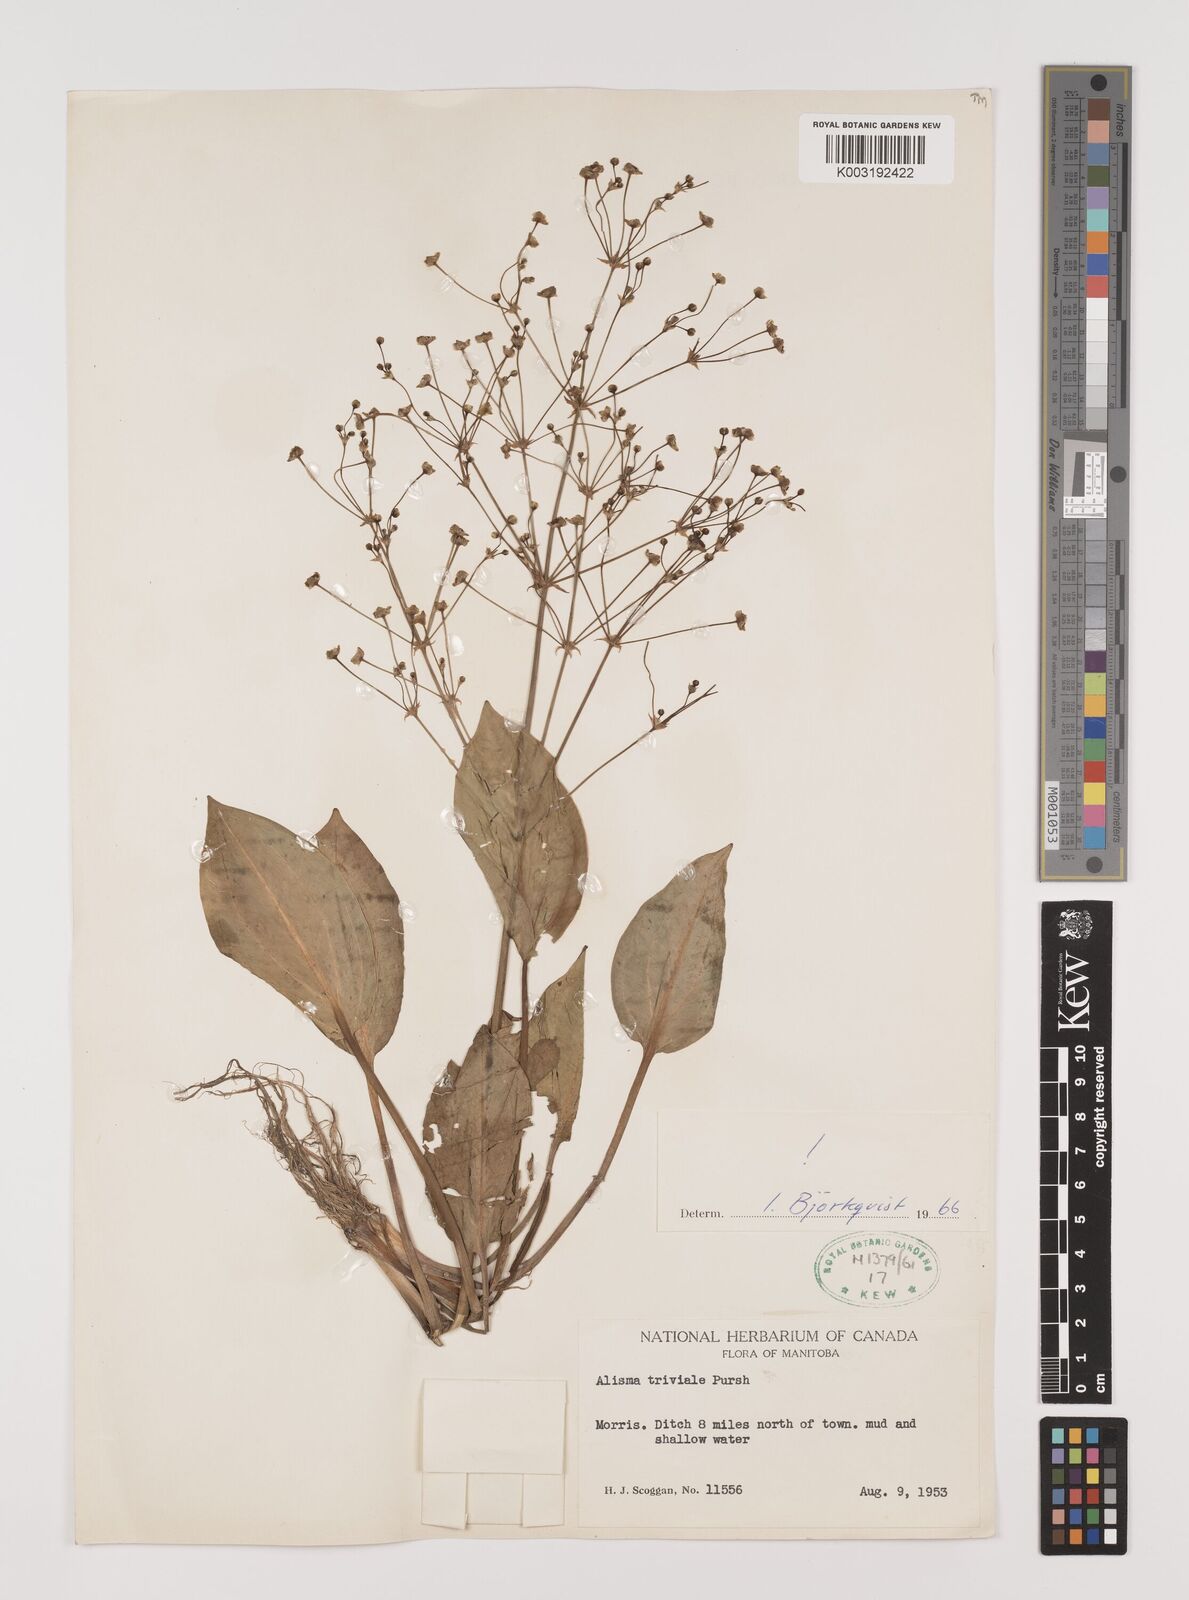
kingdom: Plantae
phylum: Tracheophyta
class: Liliopsida
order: Alismatales
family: Alismataceae
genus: Alisma
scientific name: Alisma plantago-aquatica
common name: Water-plantain
